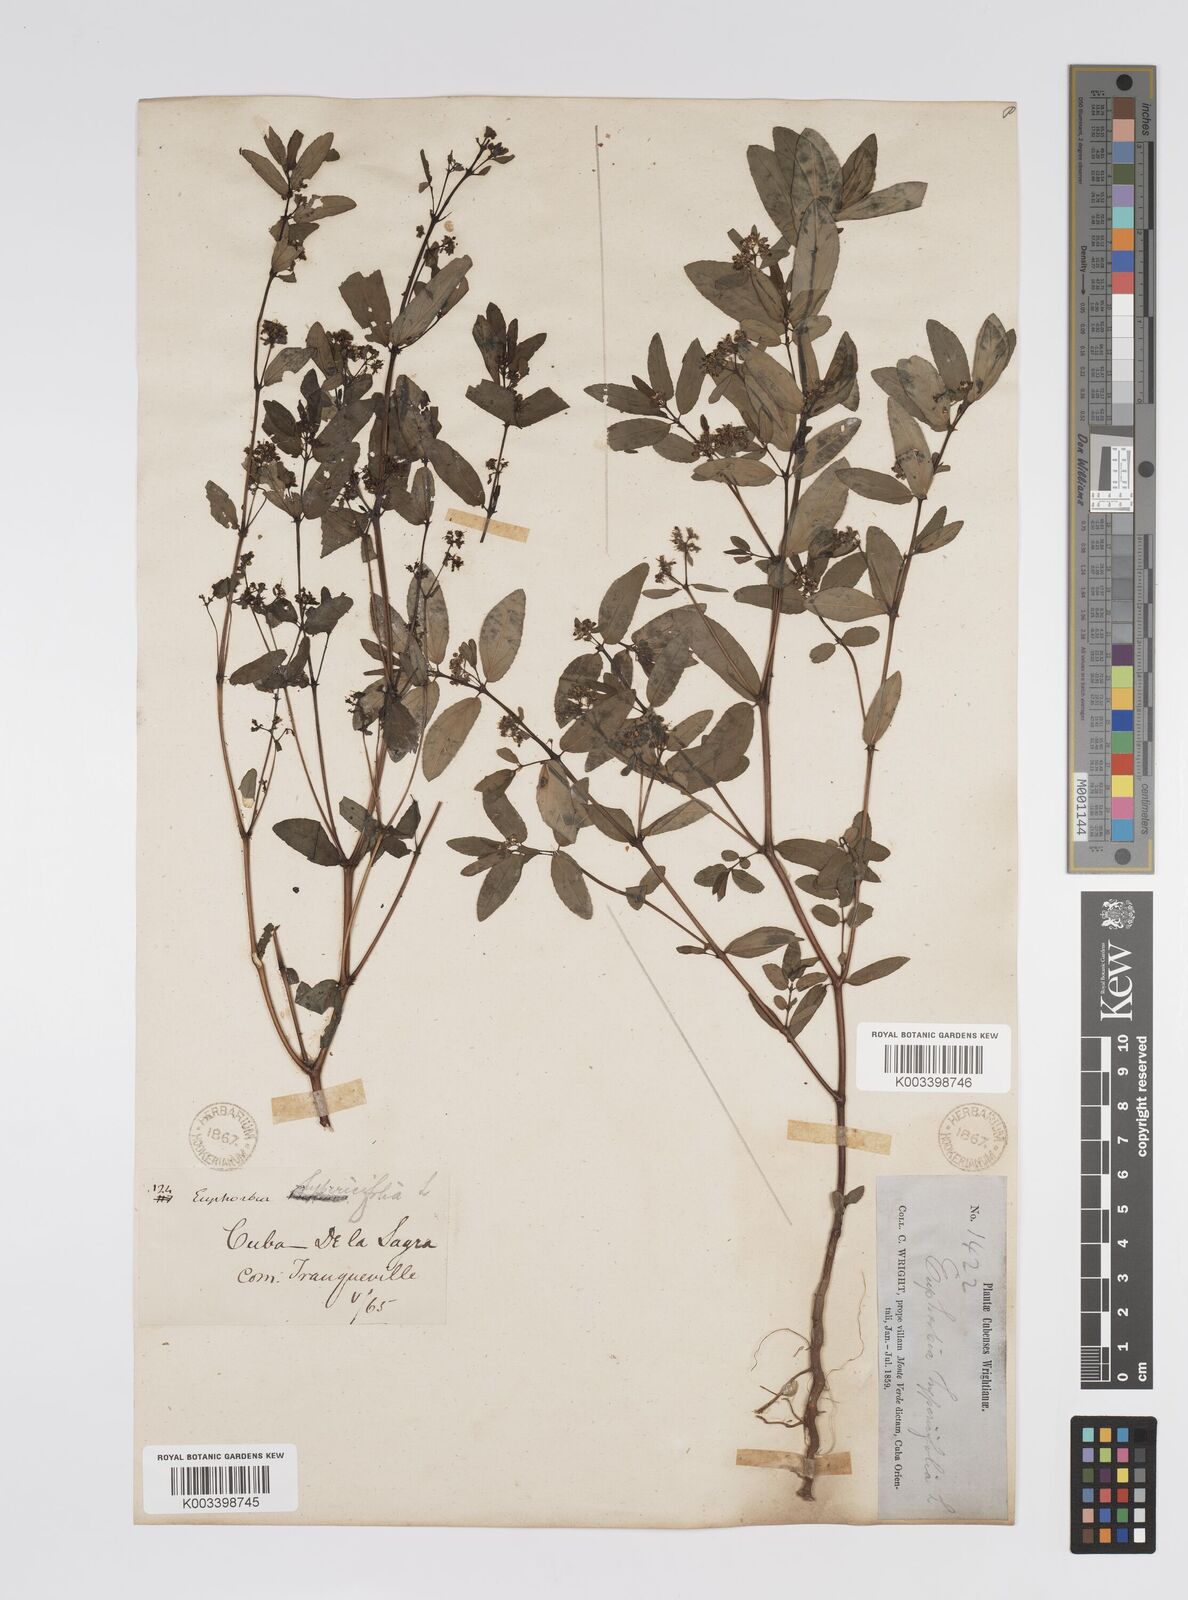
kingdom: Plantae
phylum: Tracheophyta
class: Magnoliopsida
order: Malpighiales
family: Euphorbiaceae
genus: Euphorbia
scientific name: Euphorbia
